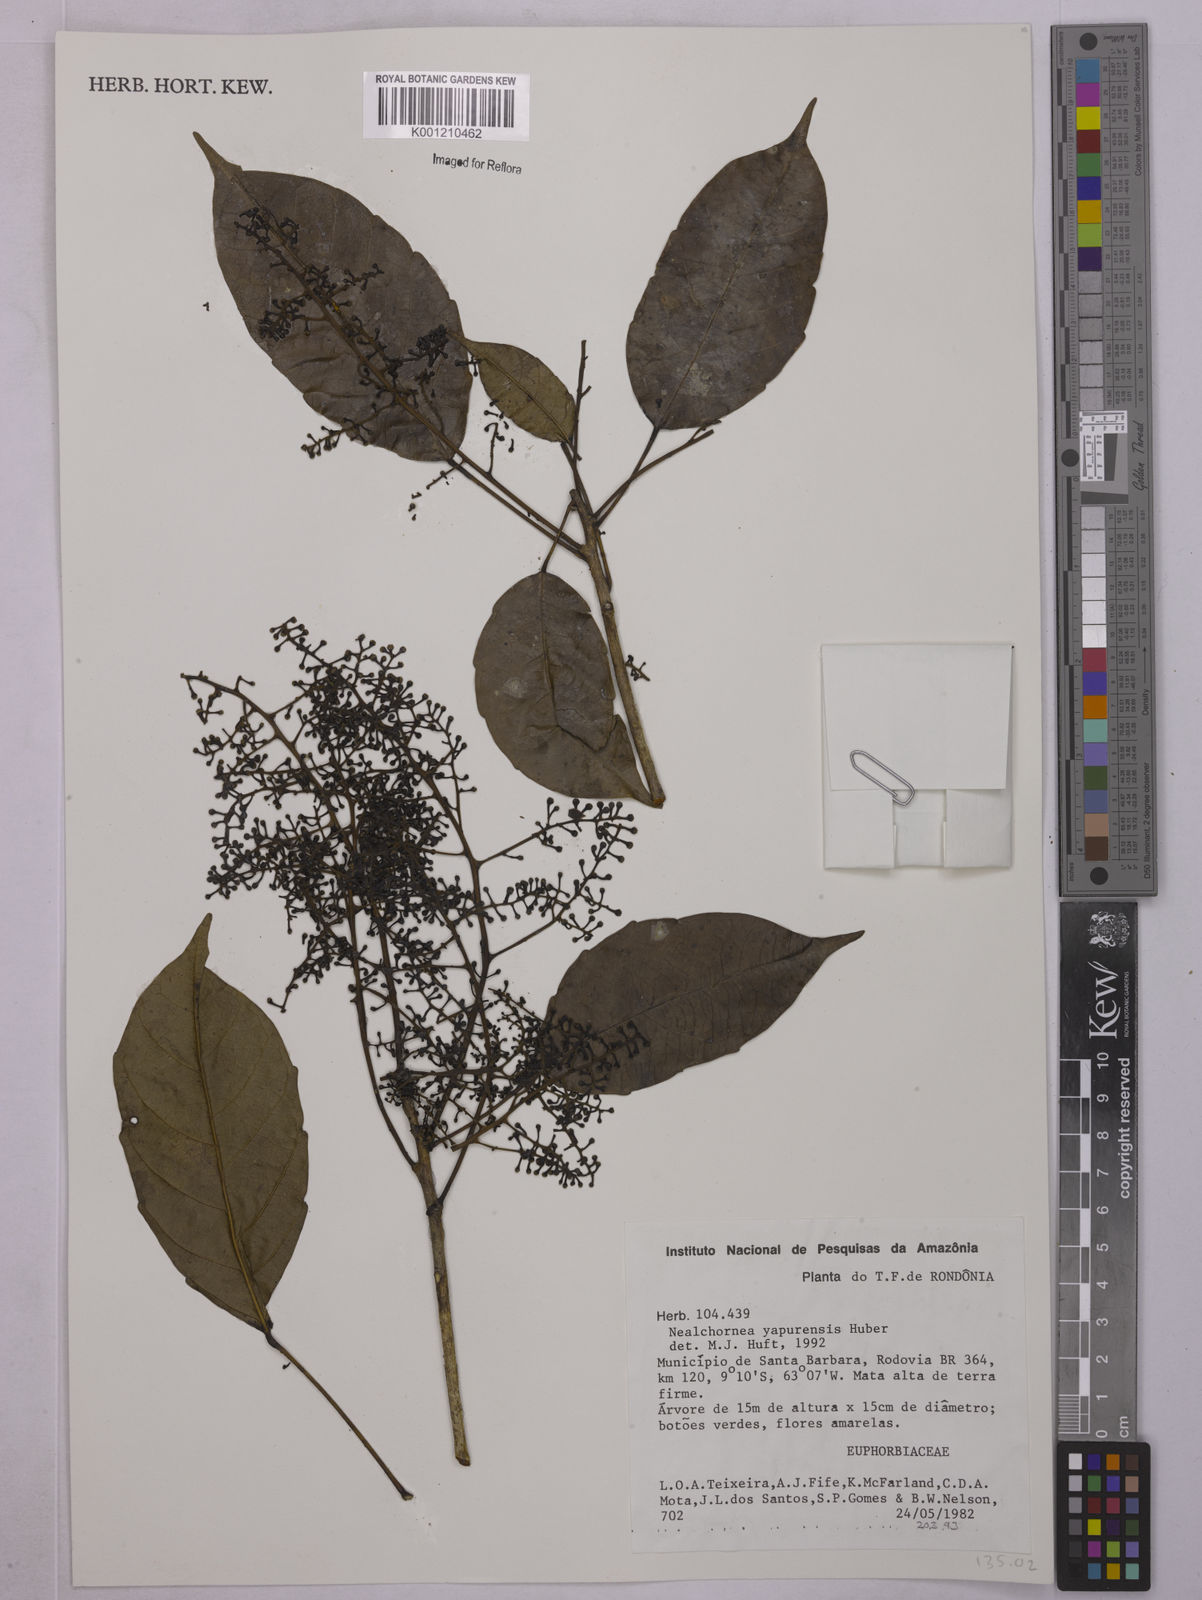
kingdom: Plantae
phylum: Tracheophyta
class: Magnoliopsida
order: Malpighiales
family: Euphorbiaceae
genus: Nealchornea
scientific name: Nealchornea yapurensis
